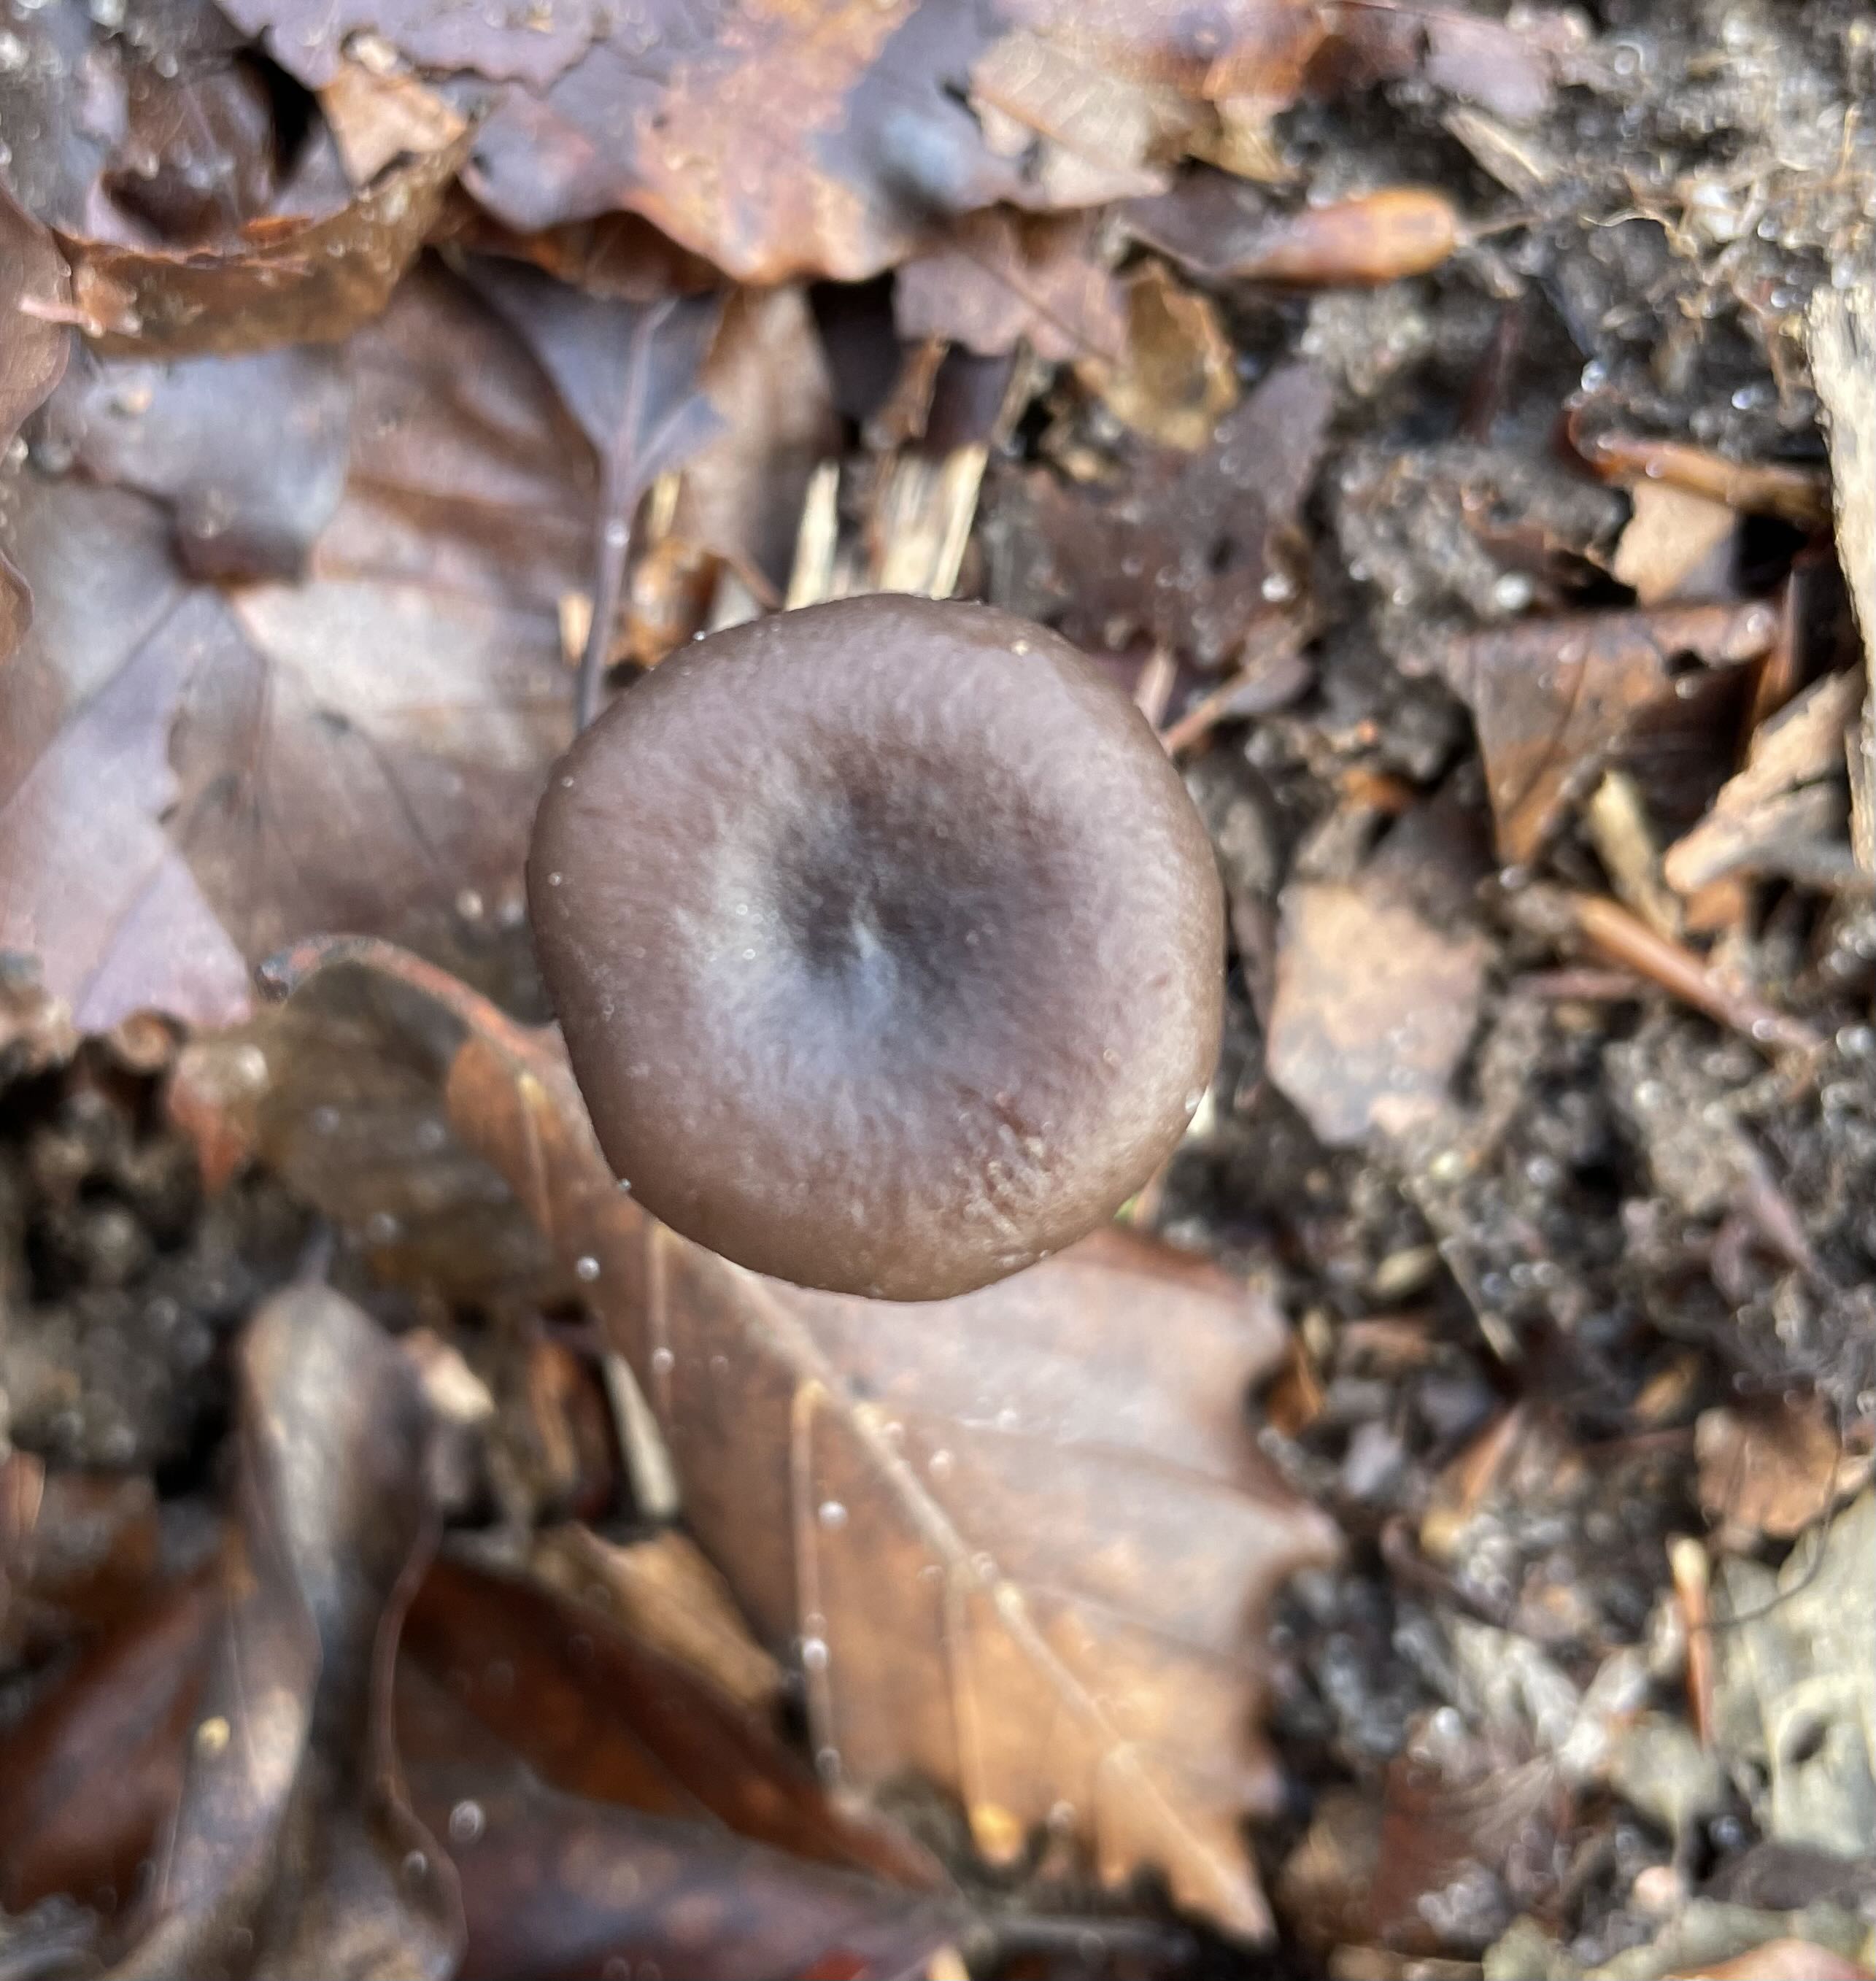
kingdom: Fungi
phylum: Basidiomycota
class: Agaricomycetes
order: Agaricales
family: Pseudoclitocybaceae
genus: Pseudoclitocybe
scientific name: Pseudoclitocybe cyathiformis
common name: almindelig bægertragthat
